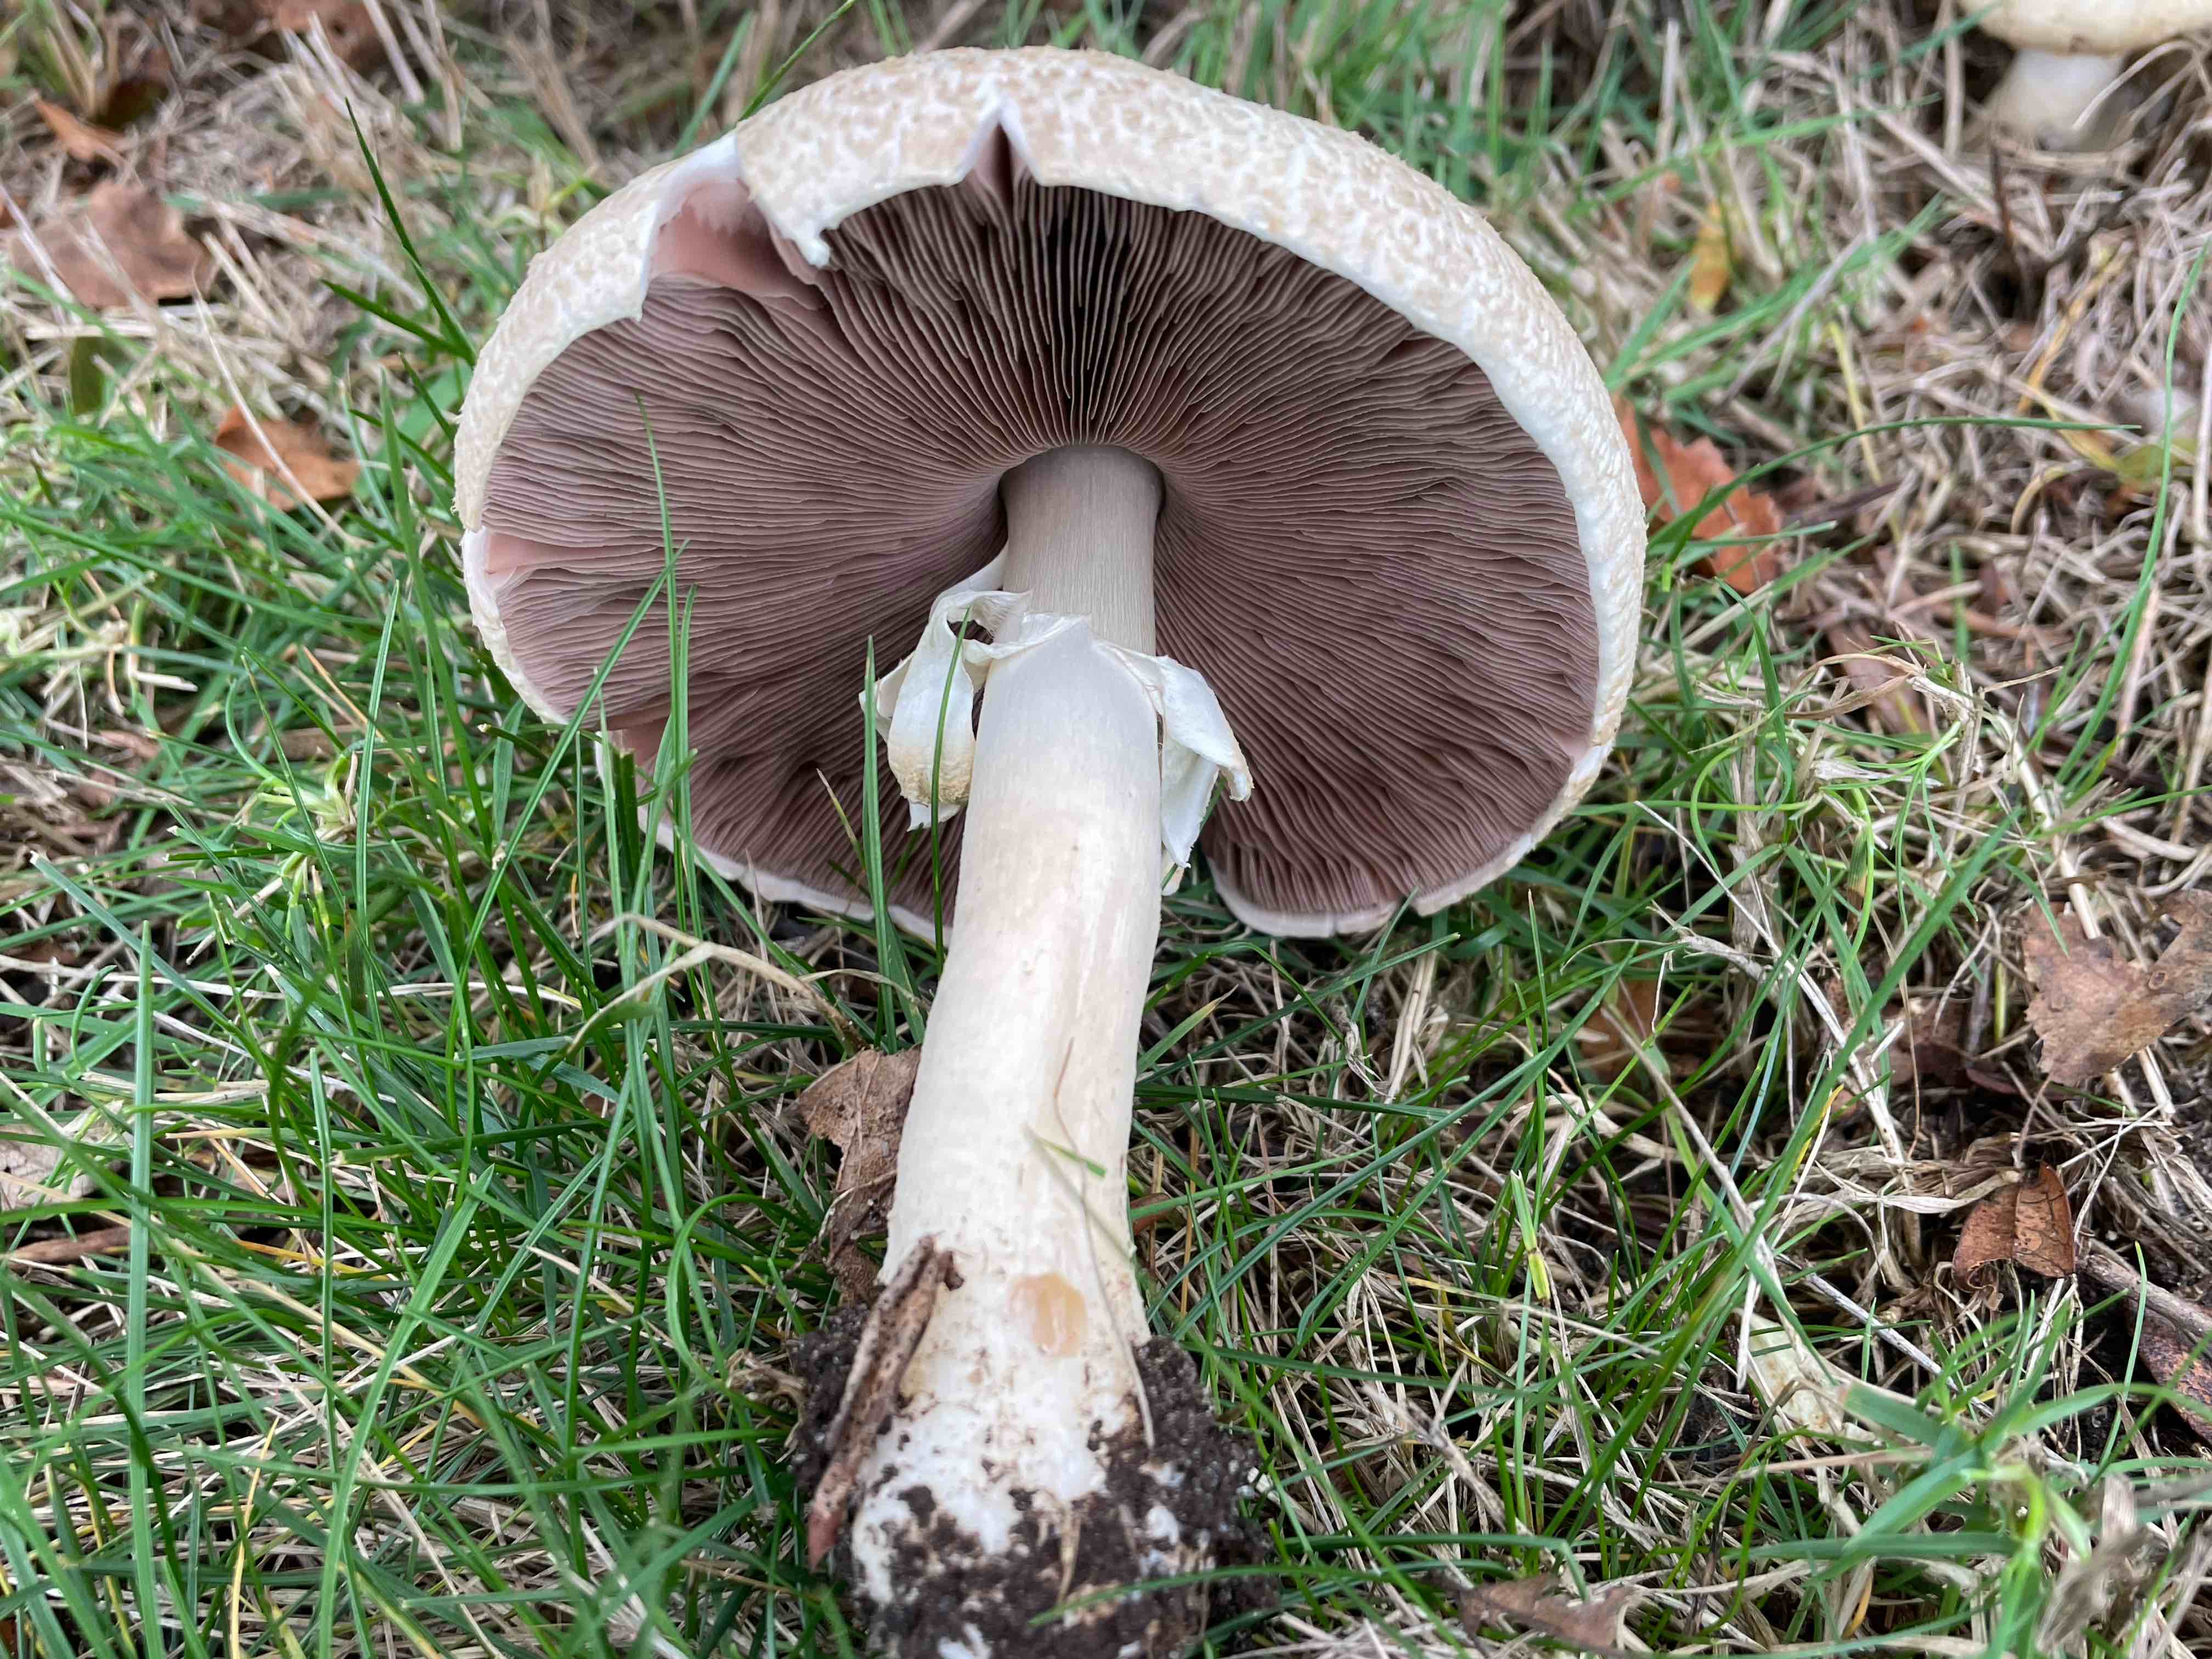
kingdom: Fungi
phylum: Basidiomycota
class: Agaricomycetes
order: Agaricales
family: Agaricaceae
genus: Agaricus
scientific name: Agaricus
